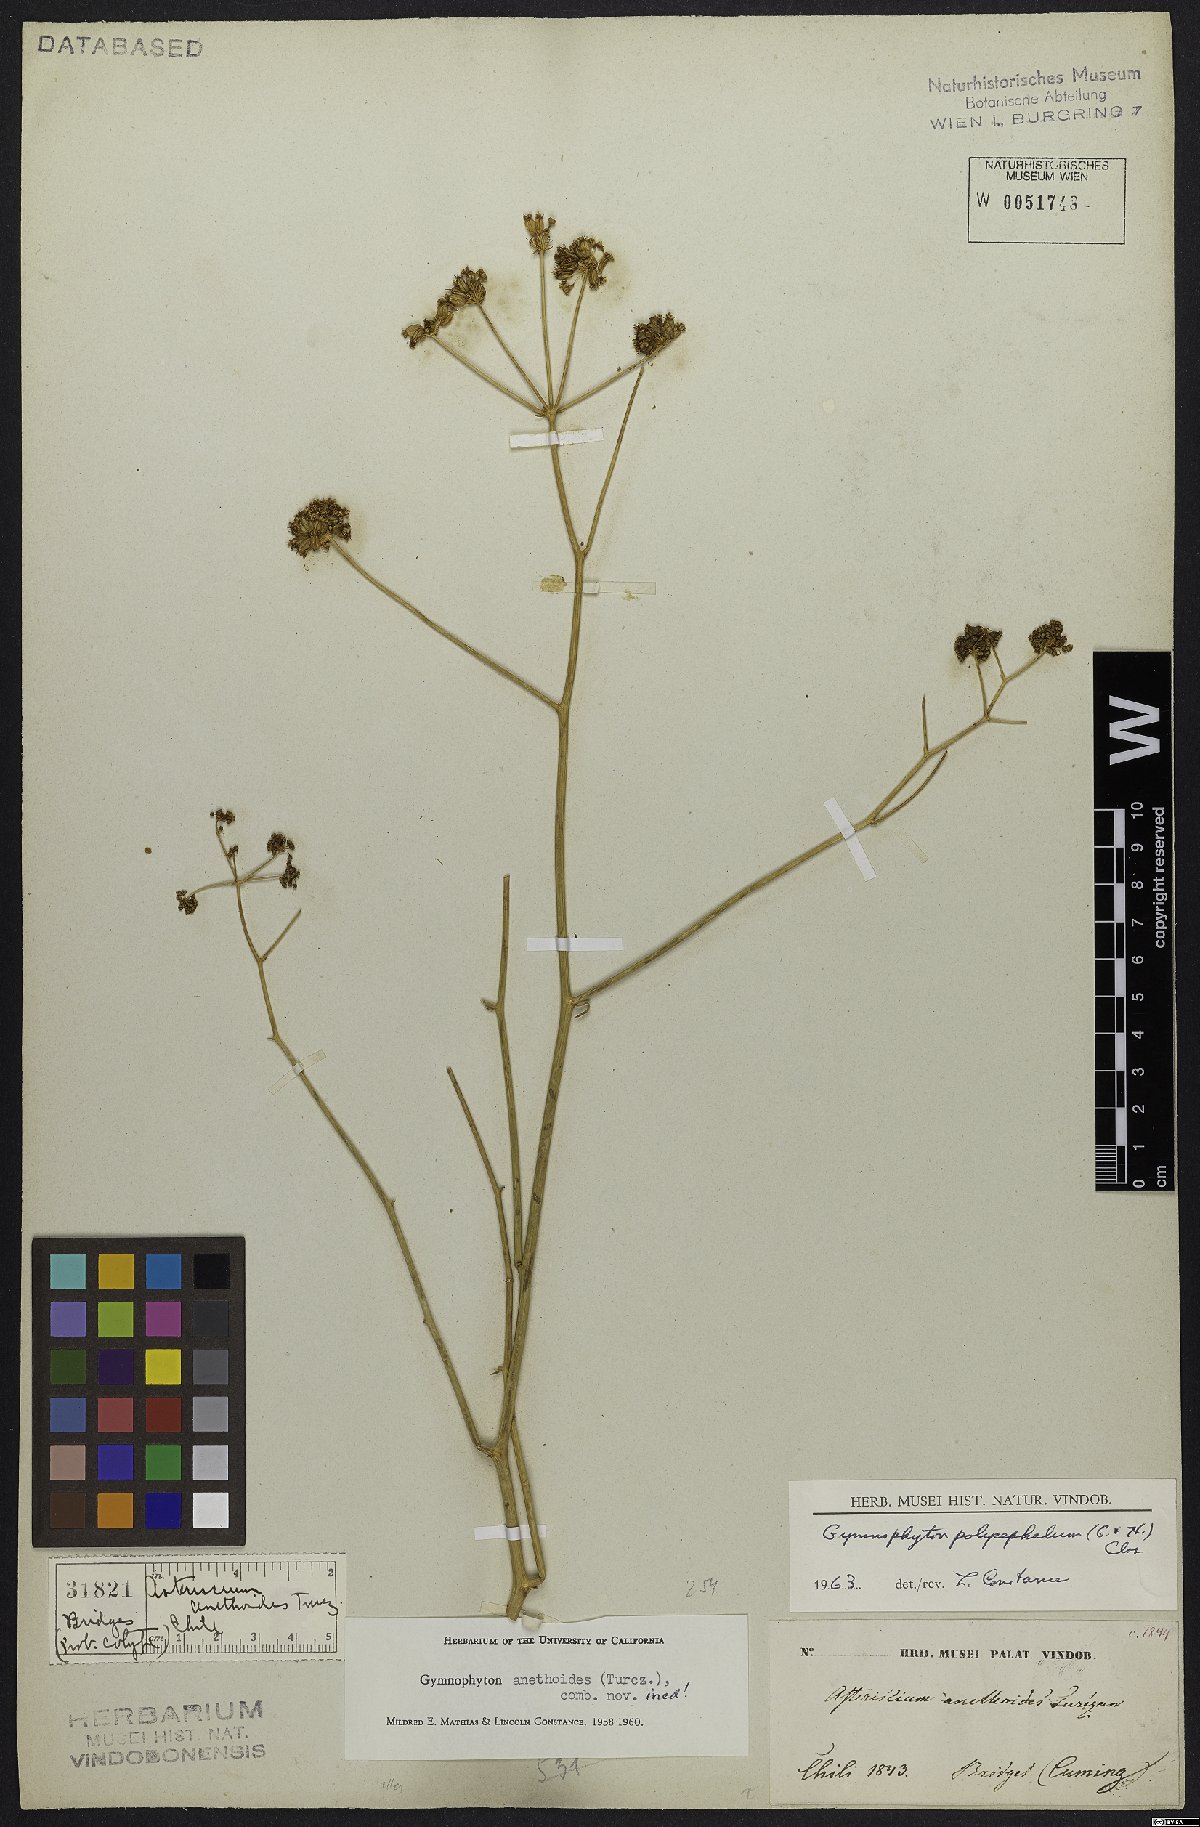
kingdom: Plantae
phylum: Tracheophyta
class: Magnoliopsida
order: Apiales
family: Apiaceae
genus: Gymnophyton
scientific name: Gymnophyton polycephalum
